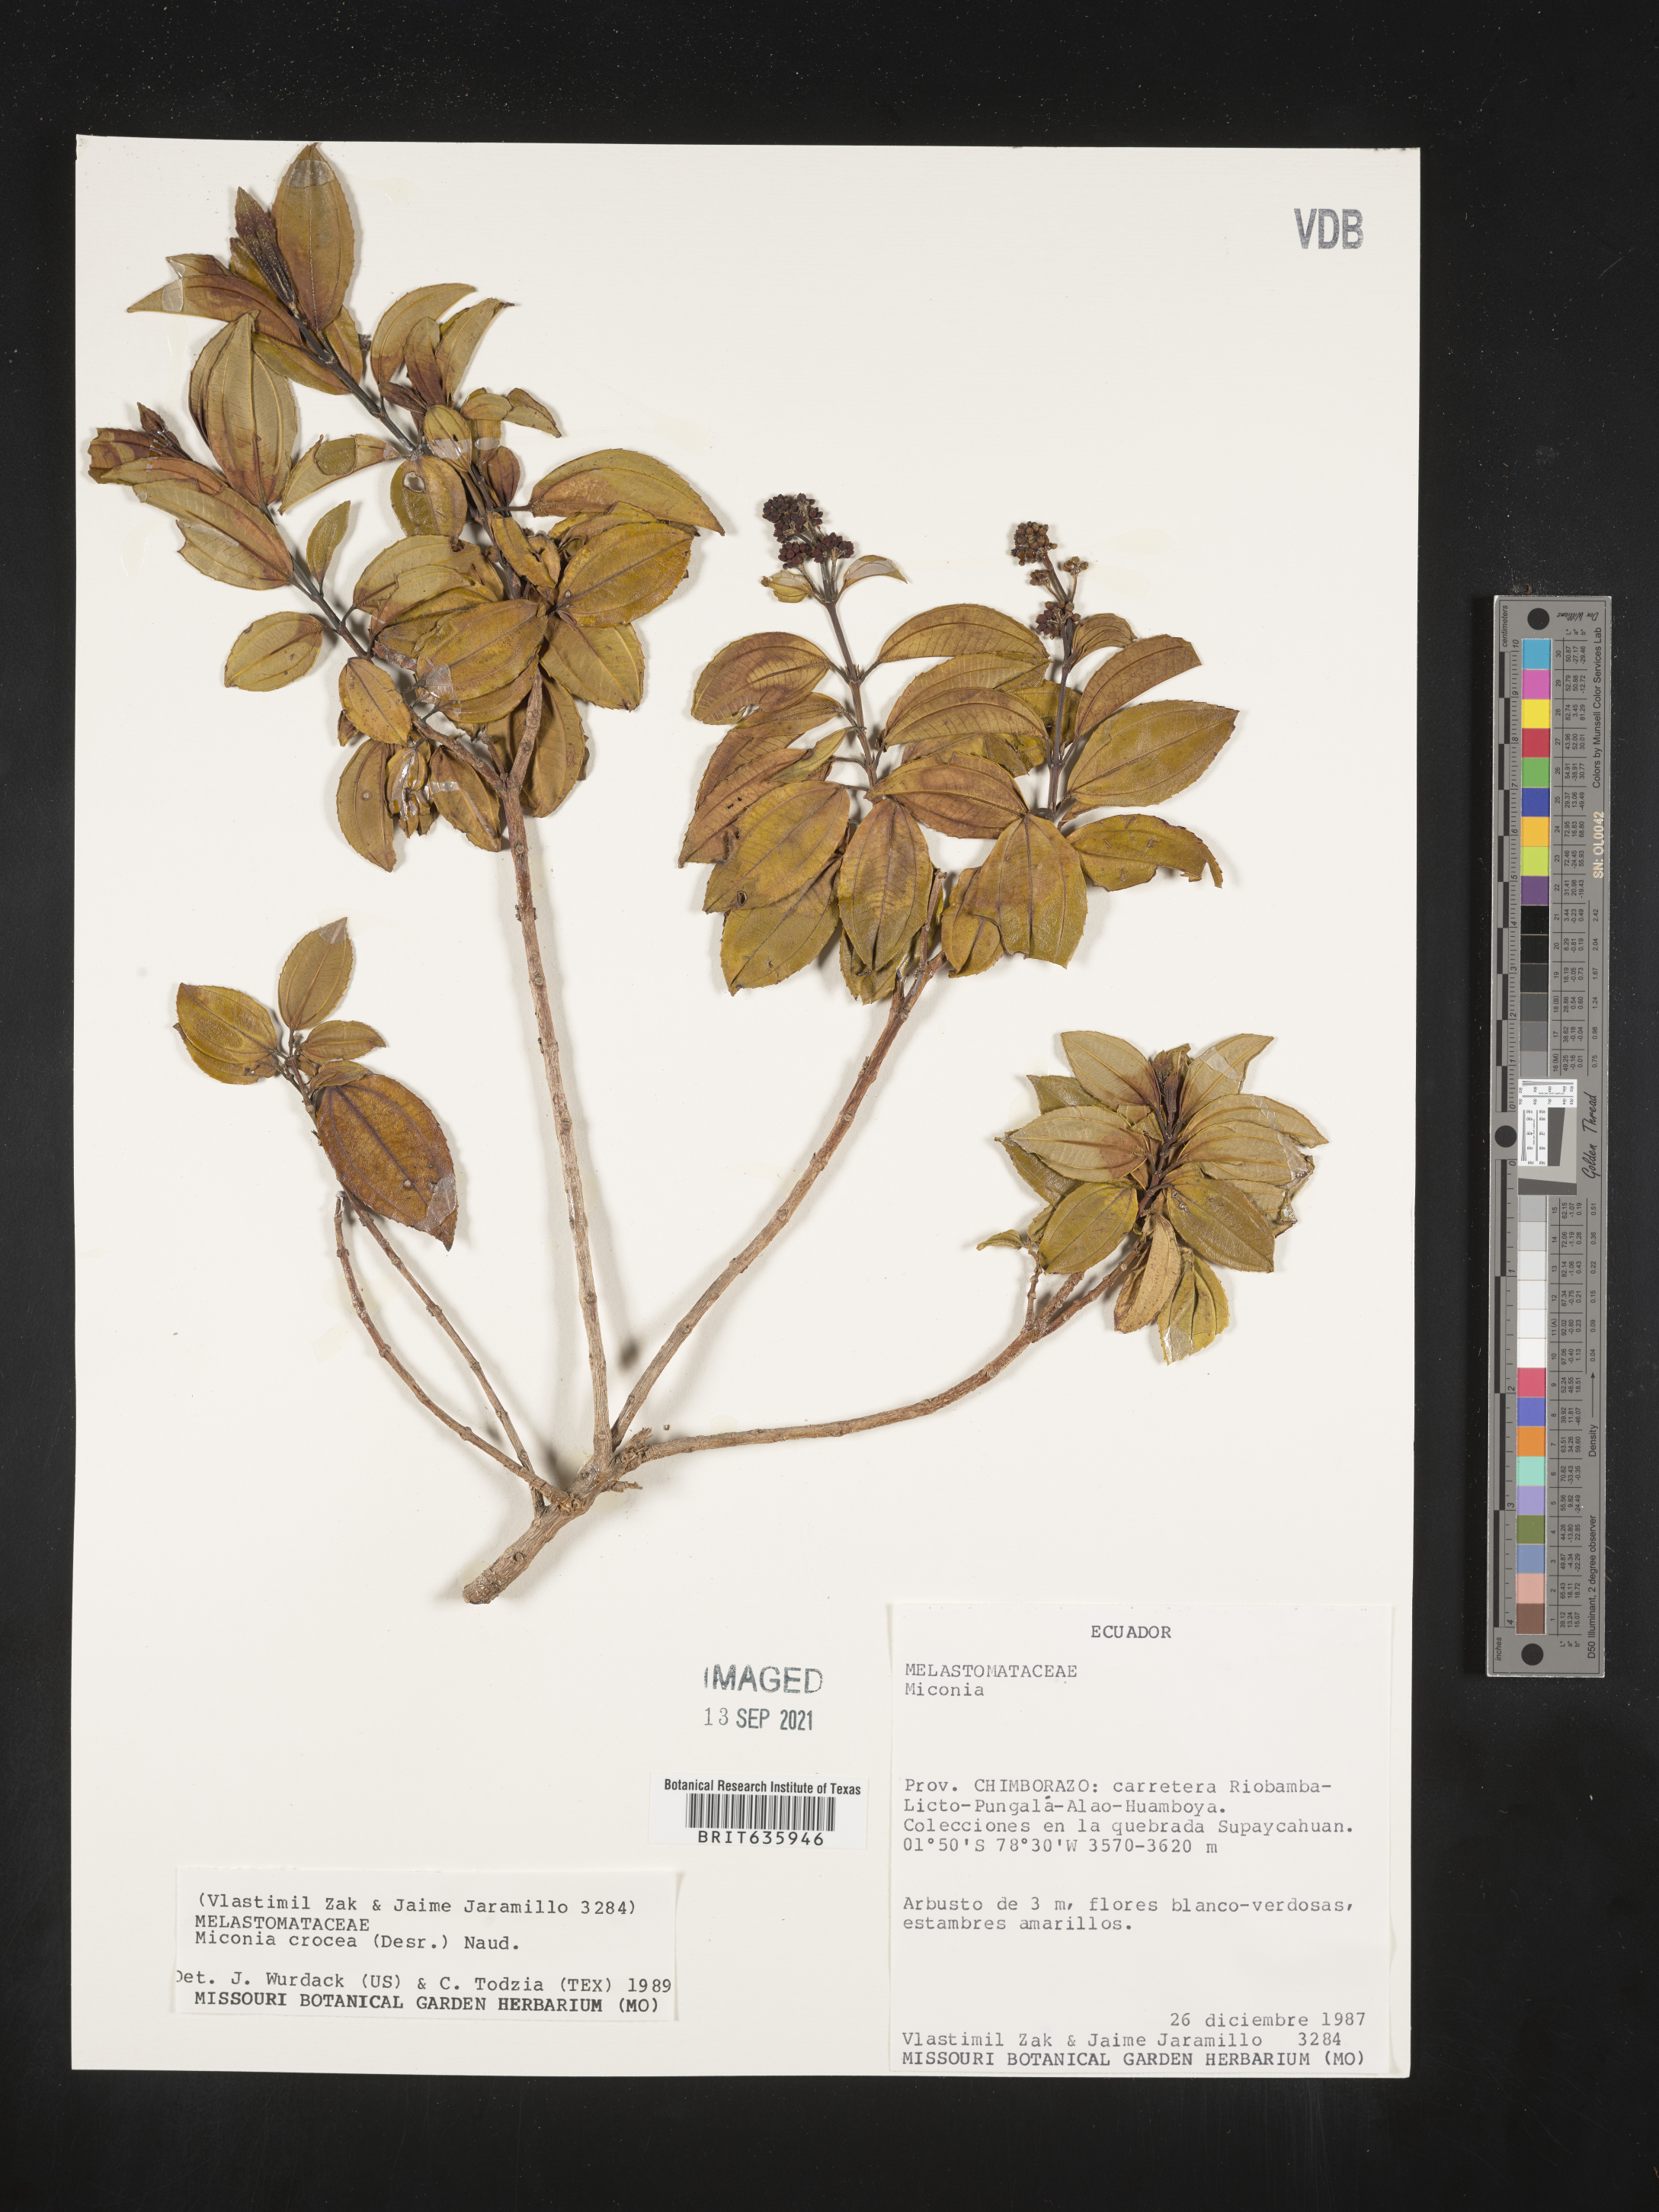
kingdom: Plantae
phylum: Tracheophyta
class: Magnoliopsida
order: Myrtales
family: Melastomataceae
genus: Miconia
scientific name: Miconia
